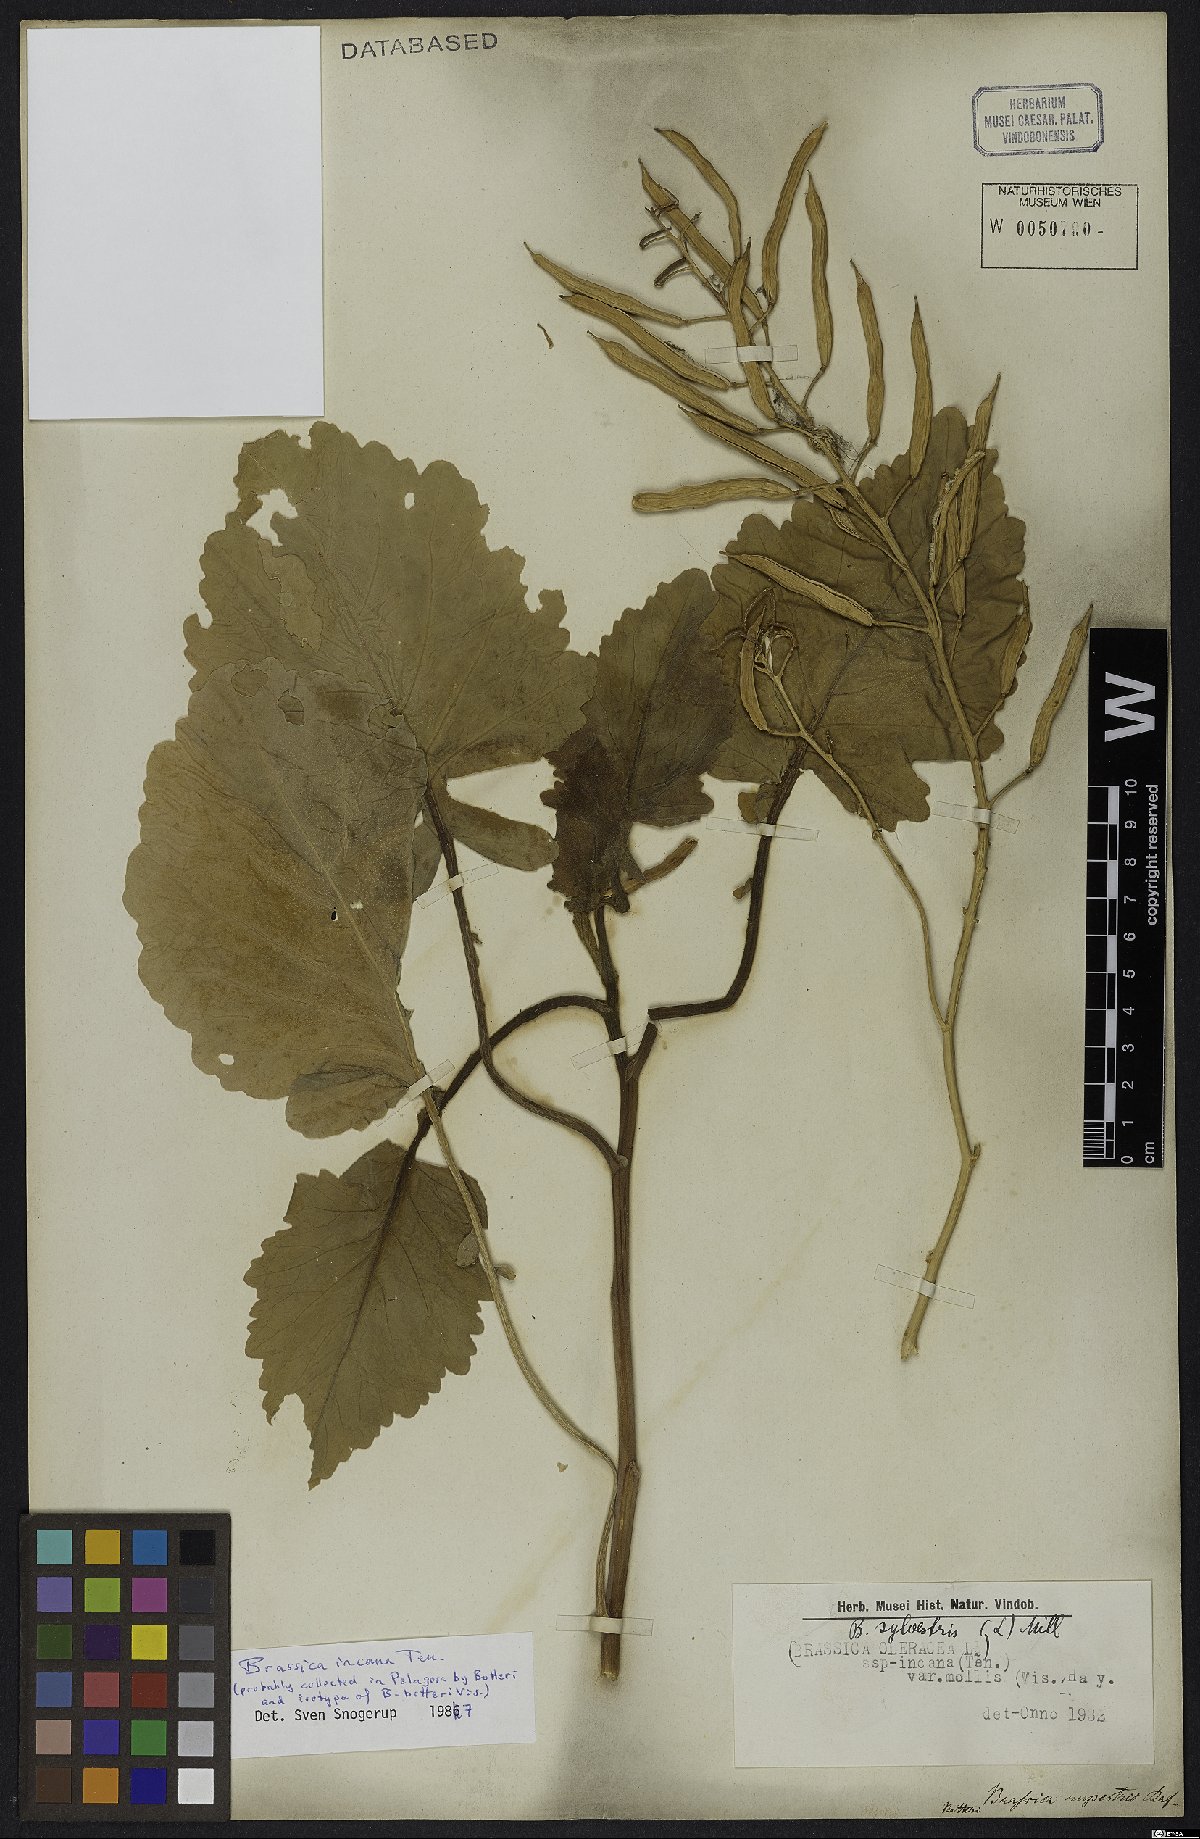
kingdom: Plantae
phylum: Tracheophyta
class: Magnoliopsida
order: Brassicales
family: Brassicaceae
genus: Brassica
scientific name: Brassica incana
